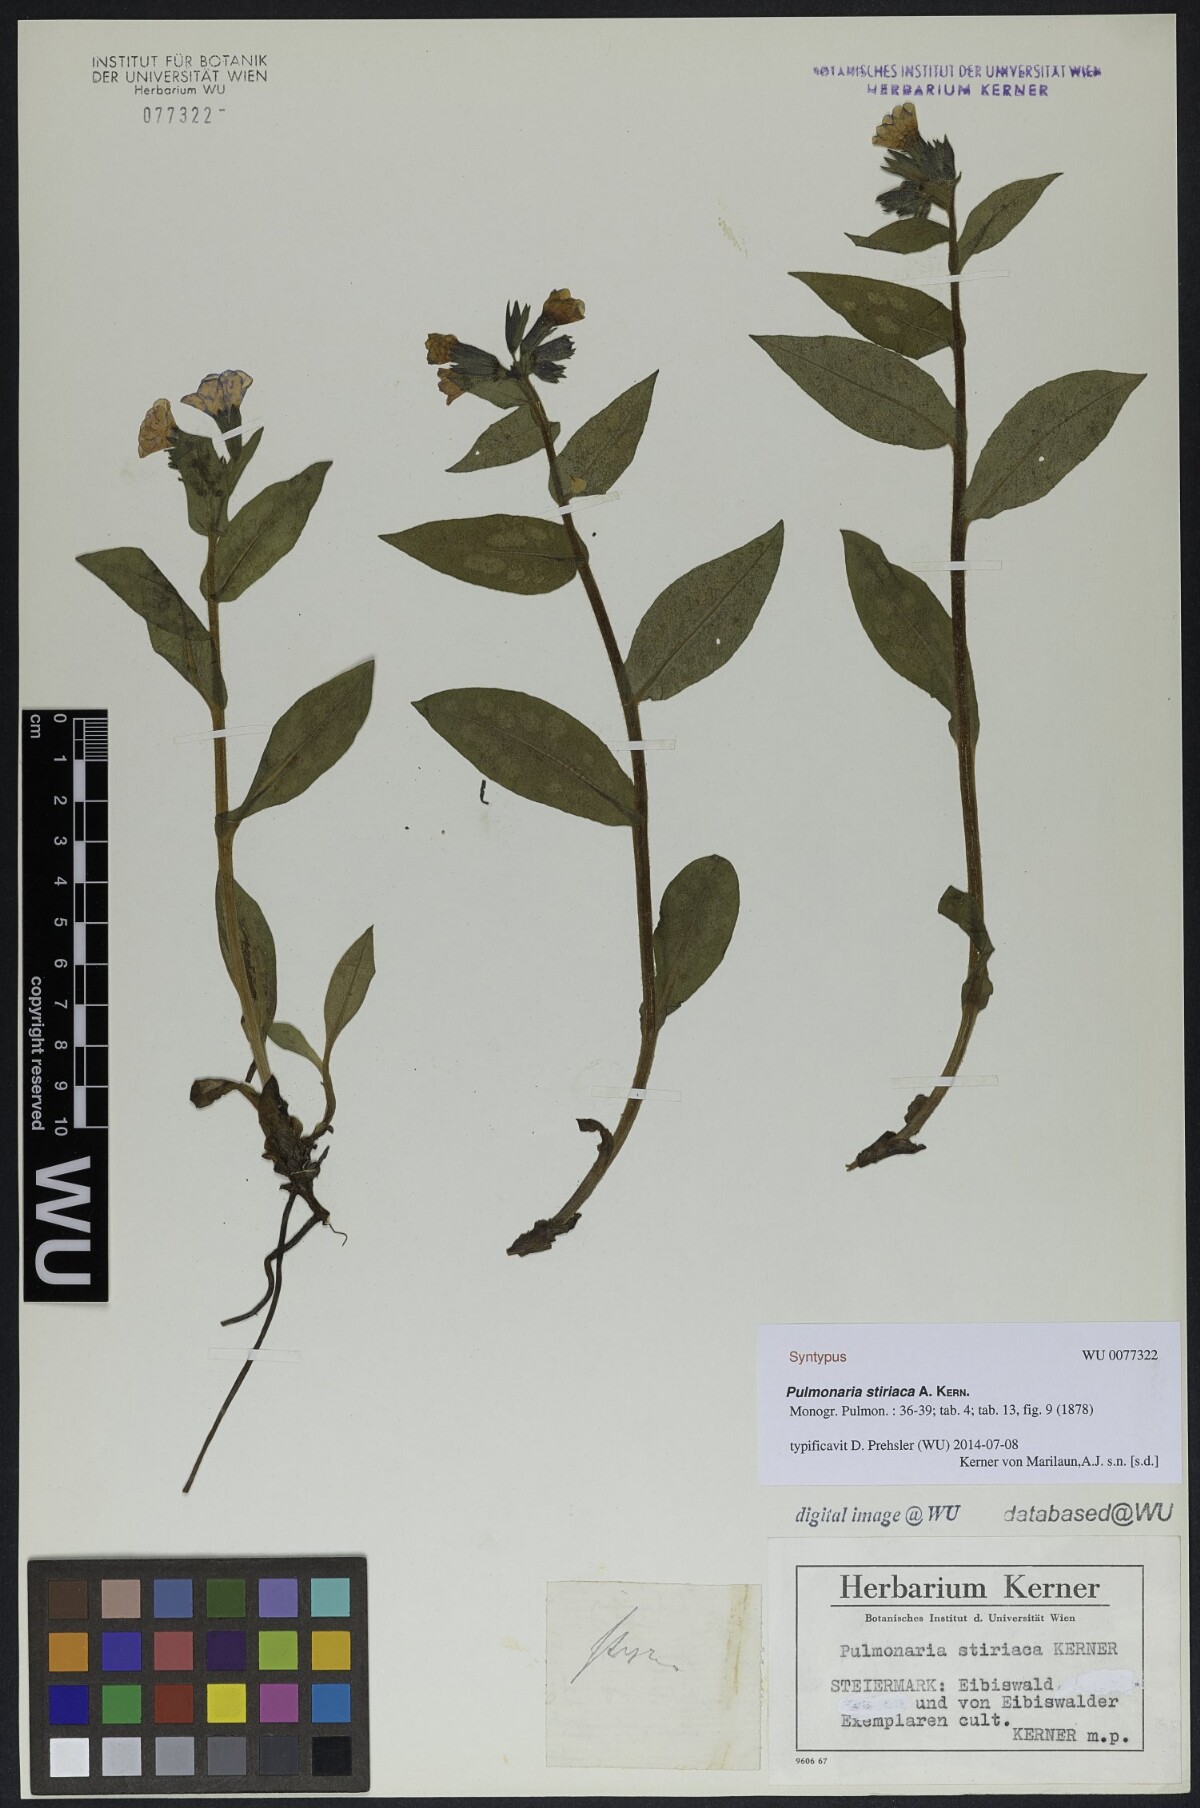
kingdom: Plantae
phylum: Tracheophyta
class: Magnoliopsida
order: Boraginales
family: Boraginaceae
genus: Pulmonaria
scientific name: Pulmonaria stiriaca
